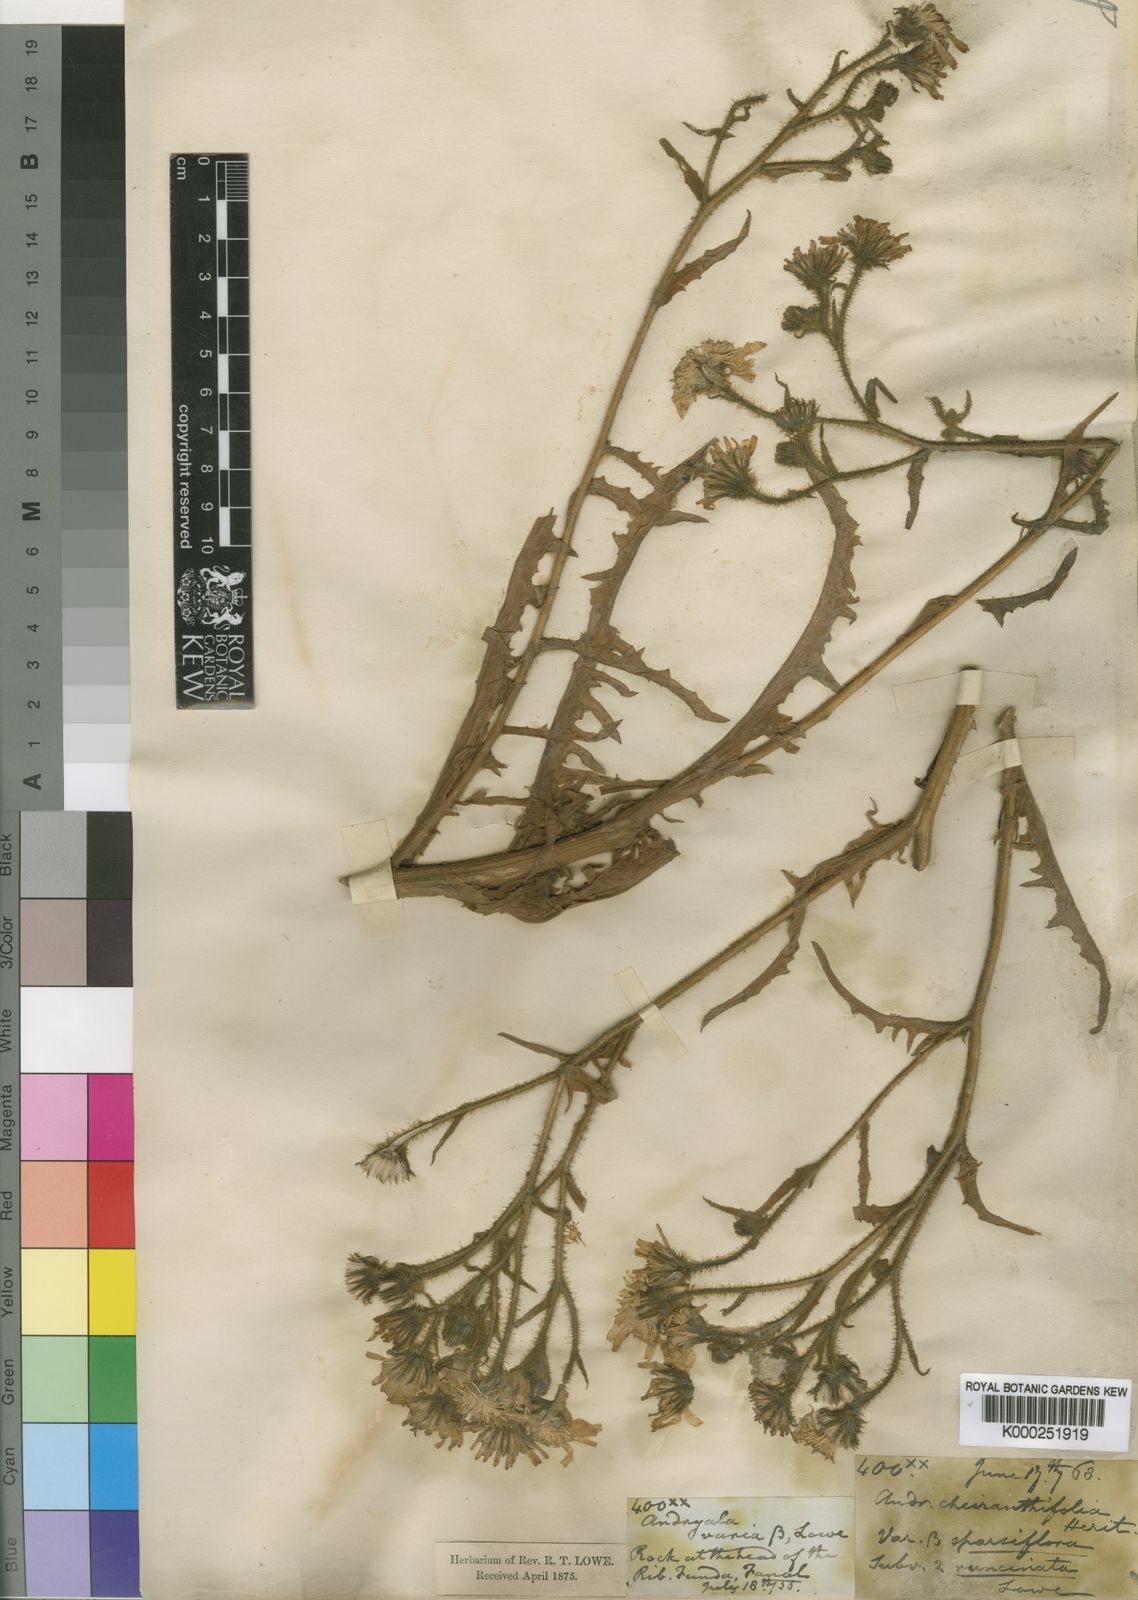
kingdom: Plantae
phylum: Tracheophyta
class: Magnoliopsida
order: Asterales
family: Asteraceae
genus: Andryala
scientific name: Andryala glandulosa
